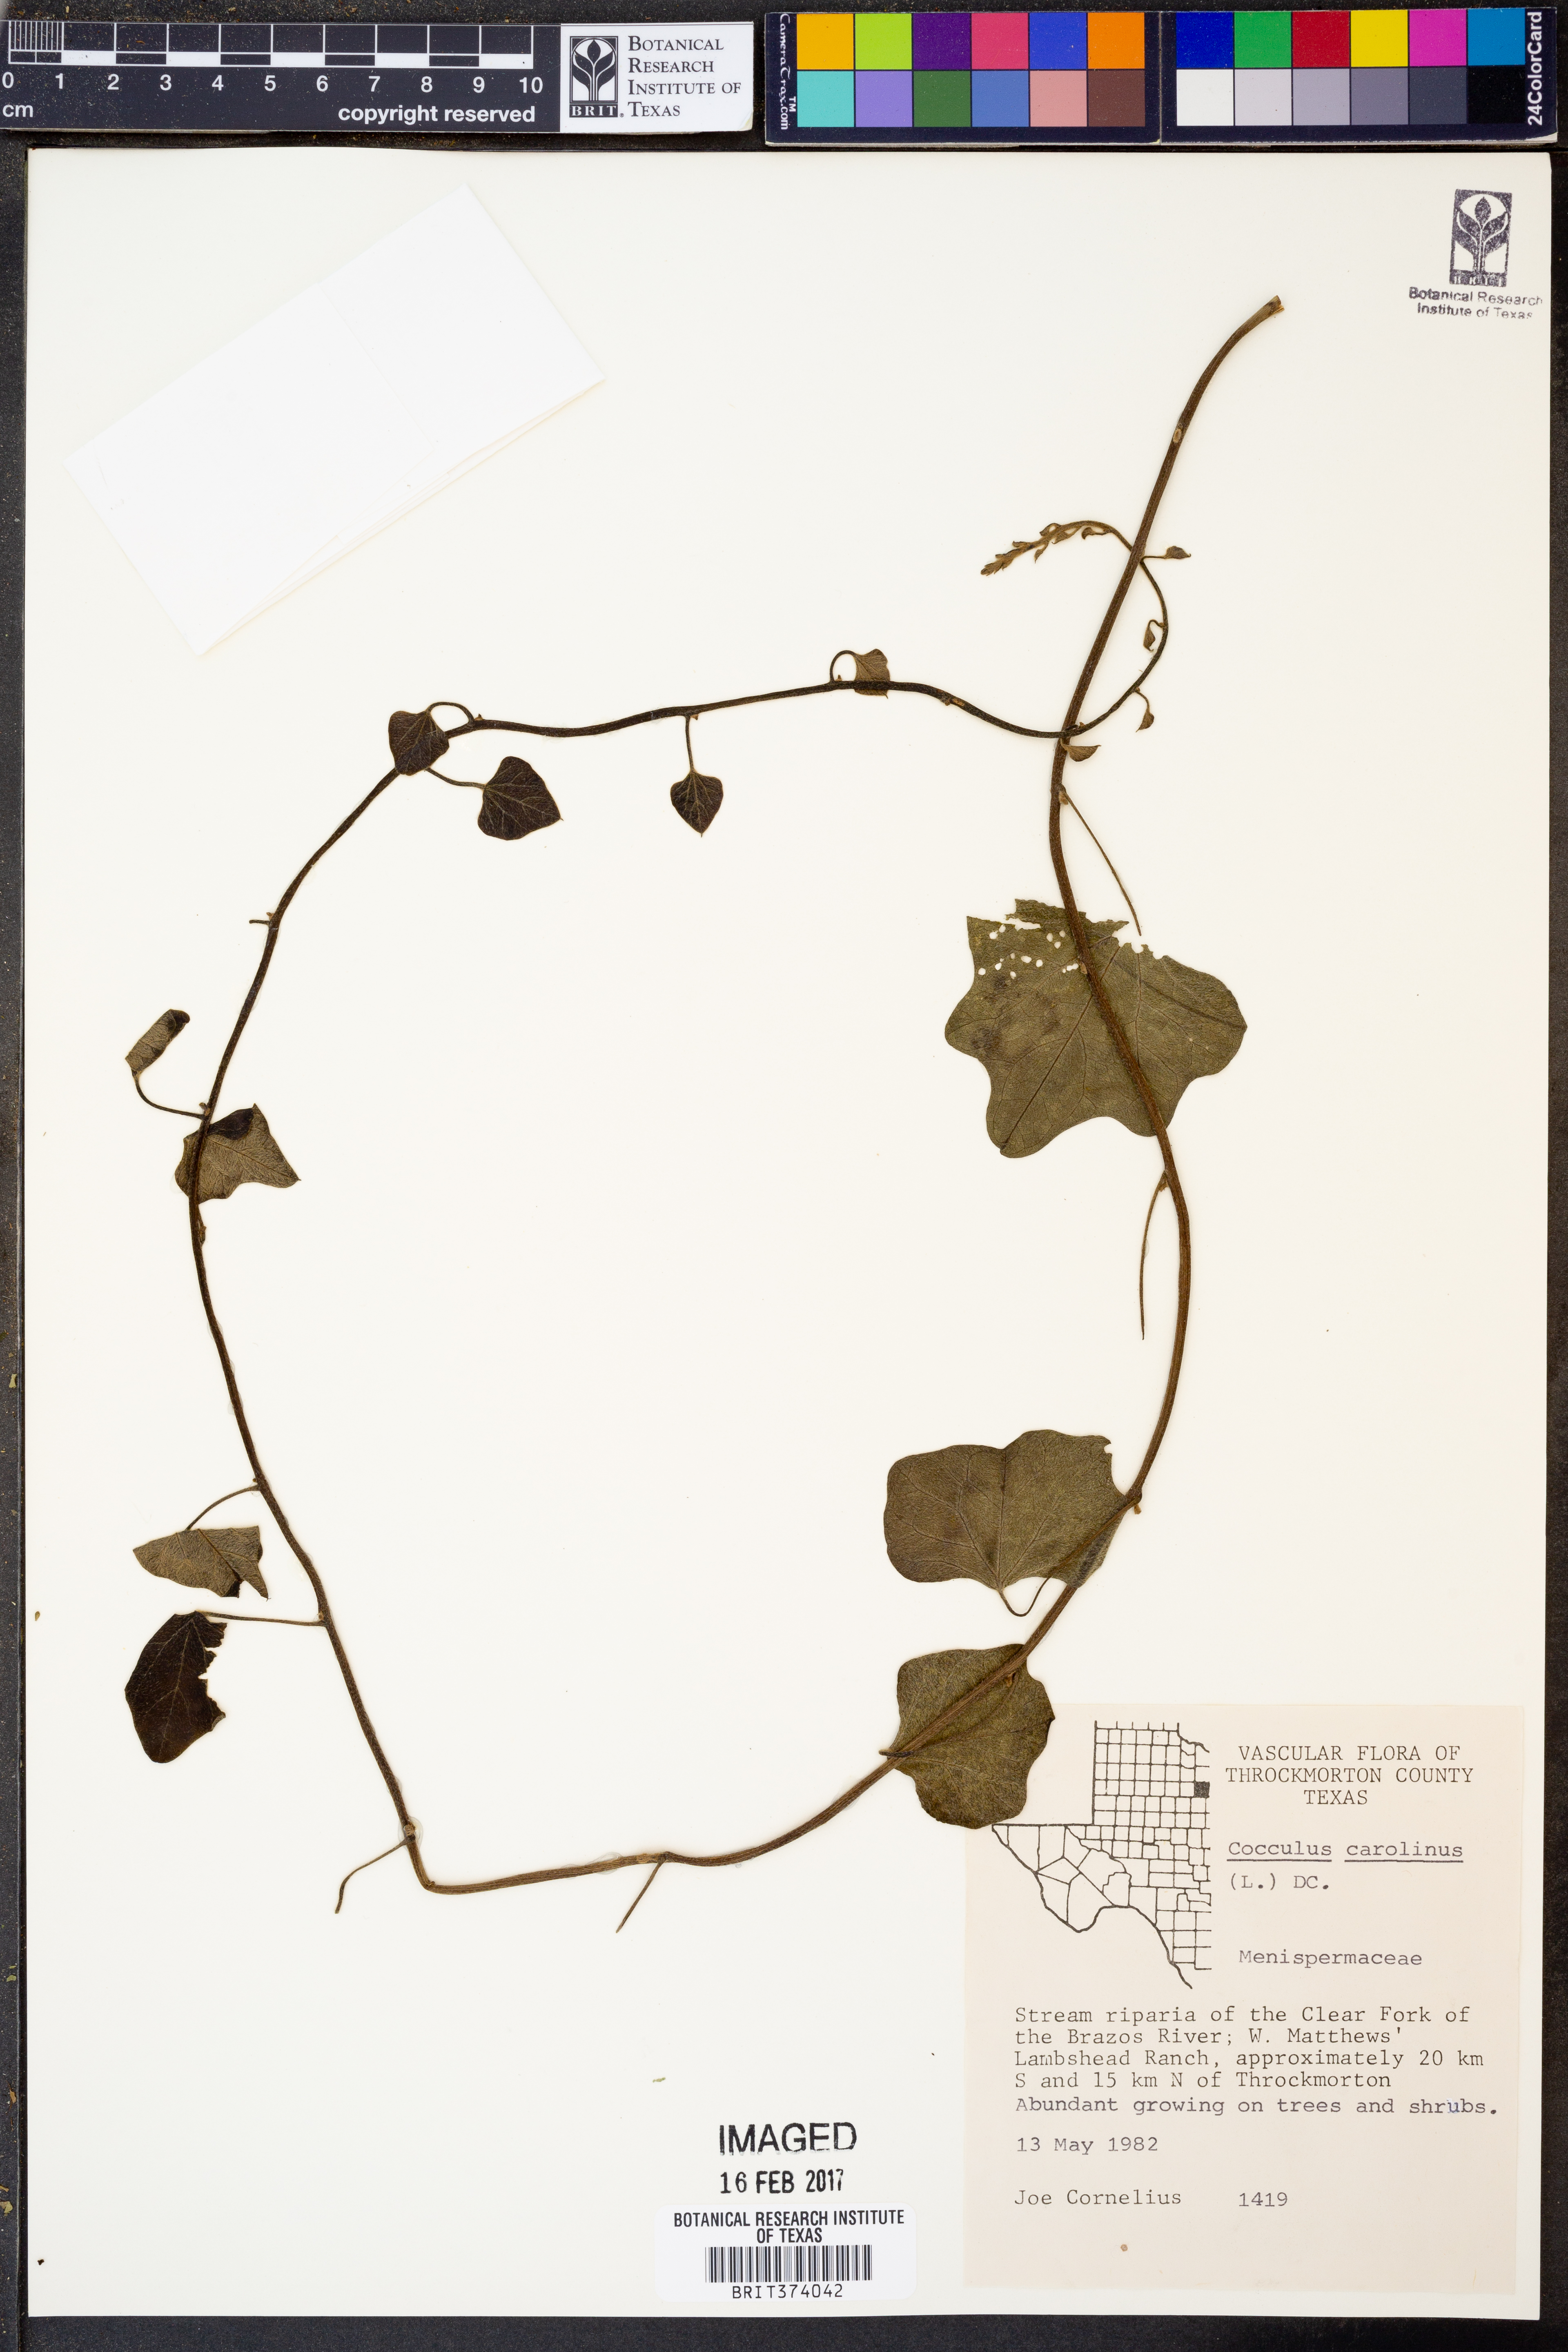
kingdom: Plantae
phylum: Tracheophyta
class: Magnoliopsida
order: Ranunculales
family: Menispermaceae
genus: Cocculus
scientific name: Cocculus carolinus
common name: Carolina moonseed
